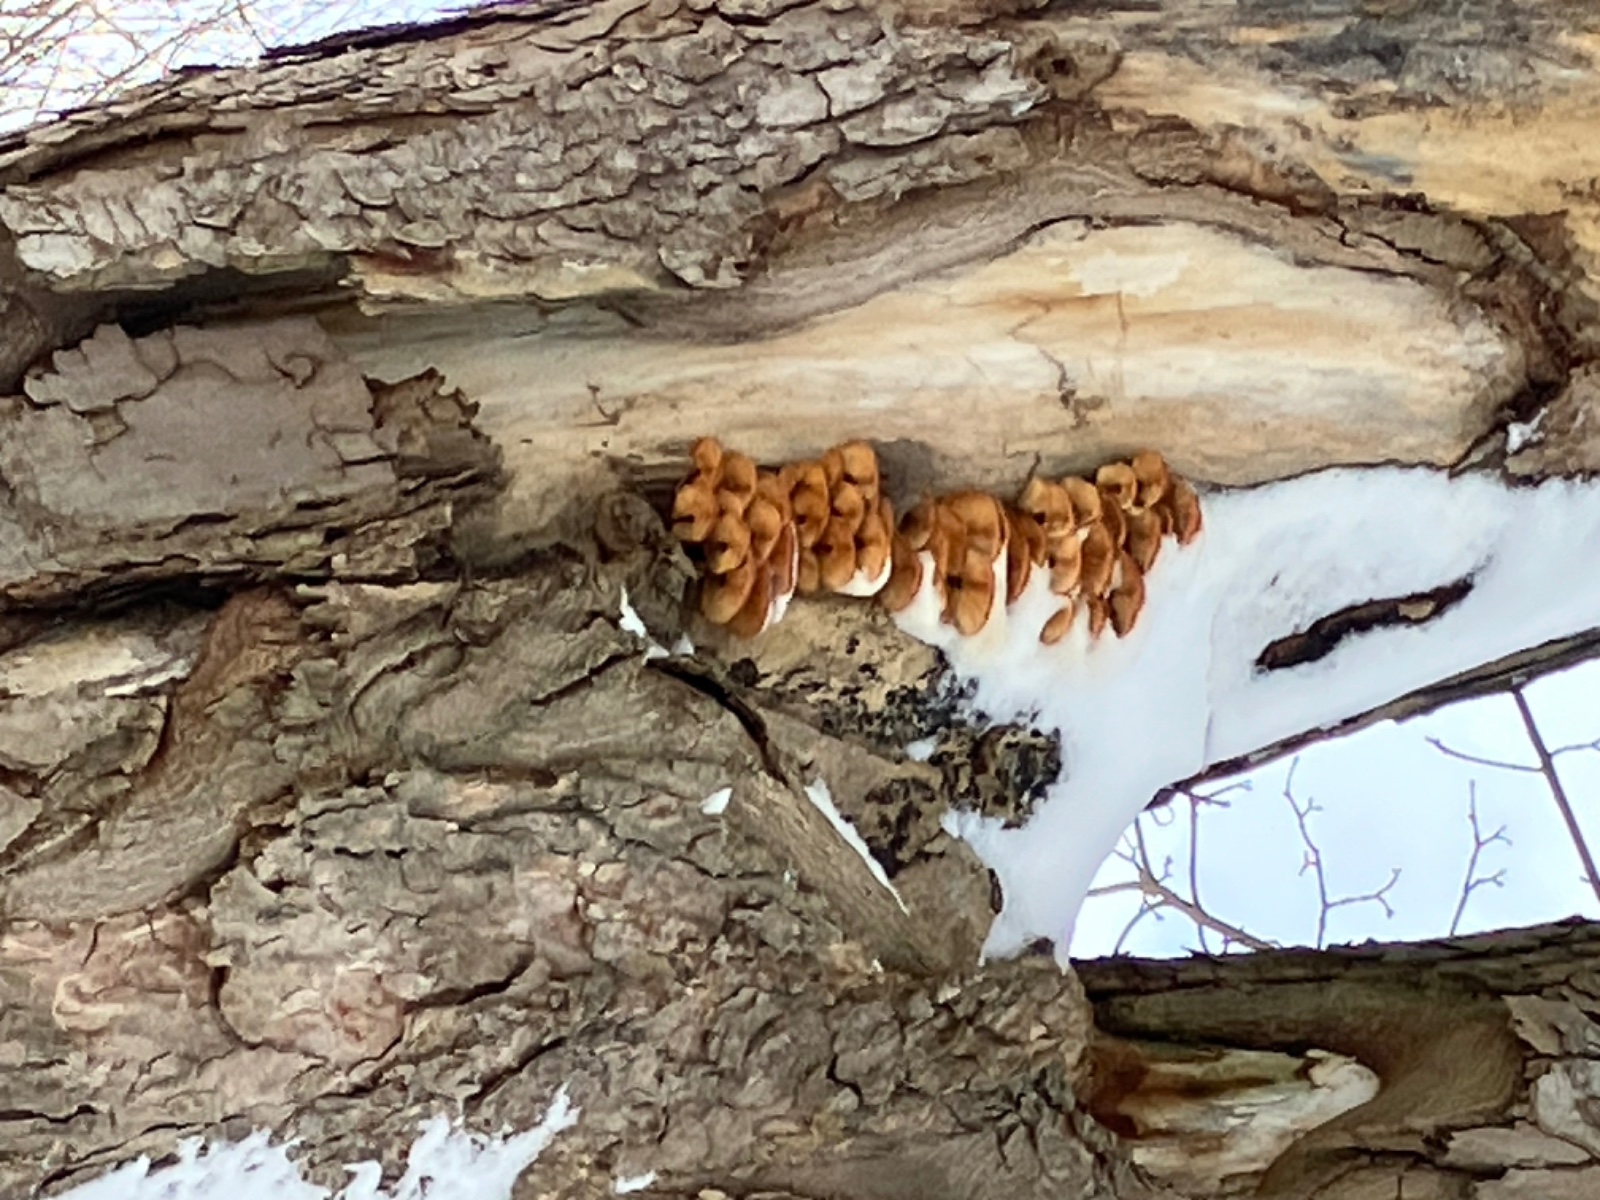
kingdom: Fungi
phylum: Basidiomycota
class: Agaricomycetes
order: Agaricales
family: Physalacriaceae
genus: Flammulina
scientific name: Flammulina velutipes
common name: gul fløjlsfod
